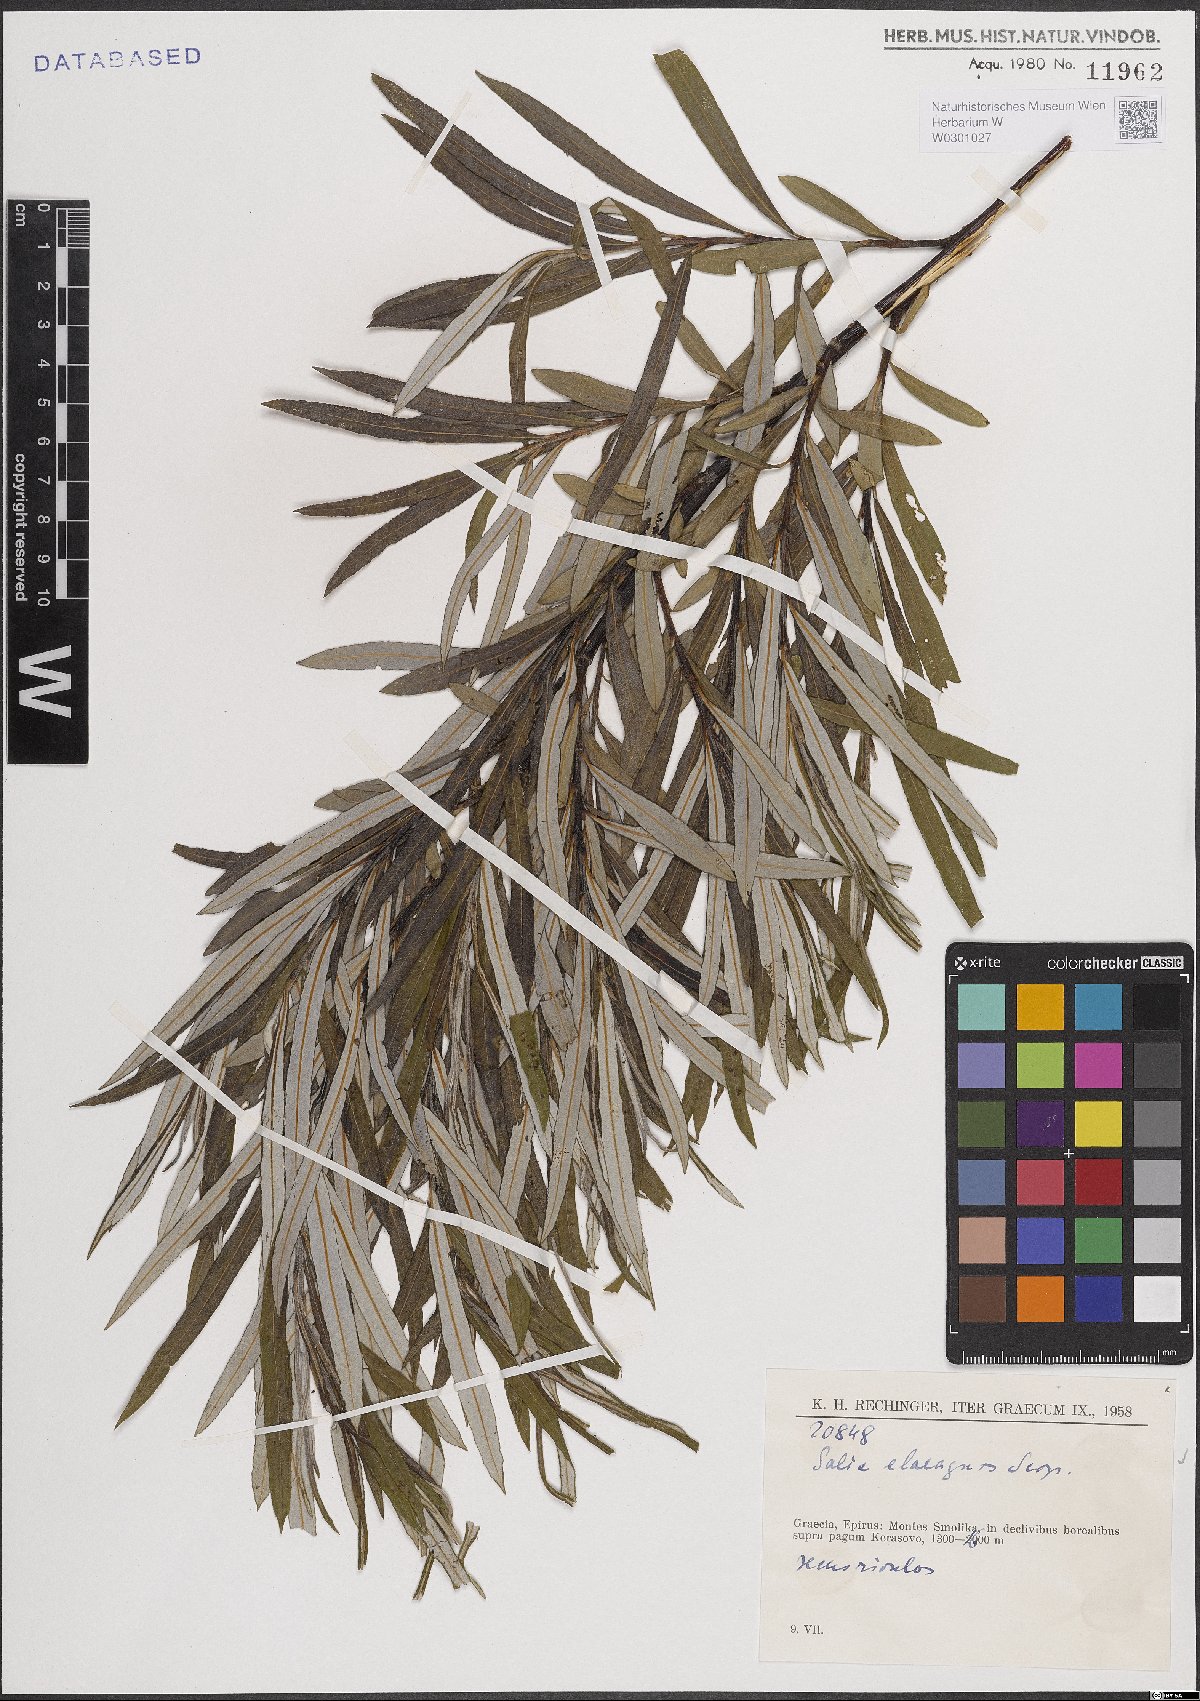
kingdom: Plantae
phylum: Tracheophyta
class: Magnoliopsida
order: Malpighiales
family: Salicaceae
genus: Salix
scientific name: Salix eleagnos
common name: Elaeagnus willow
